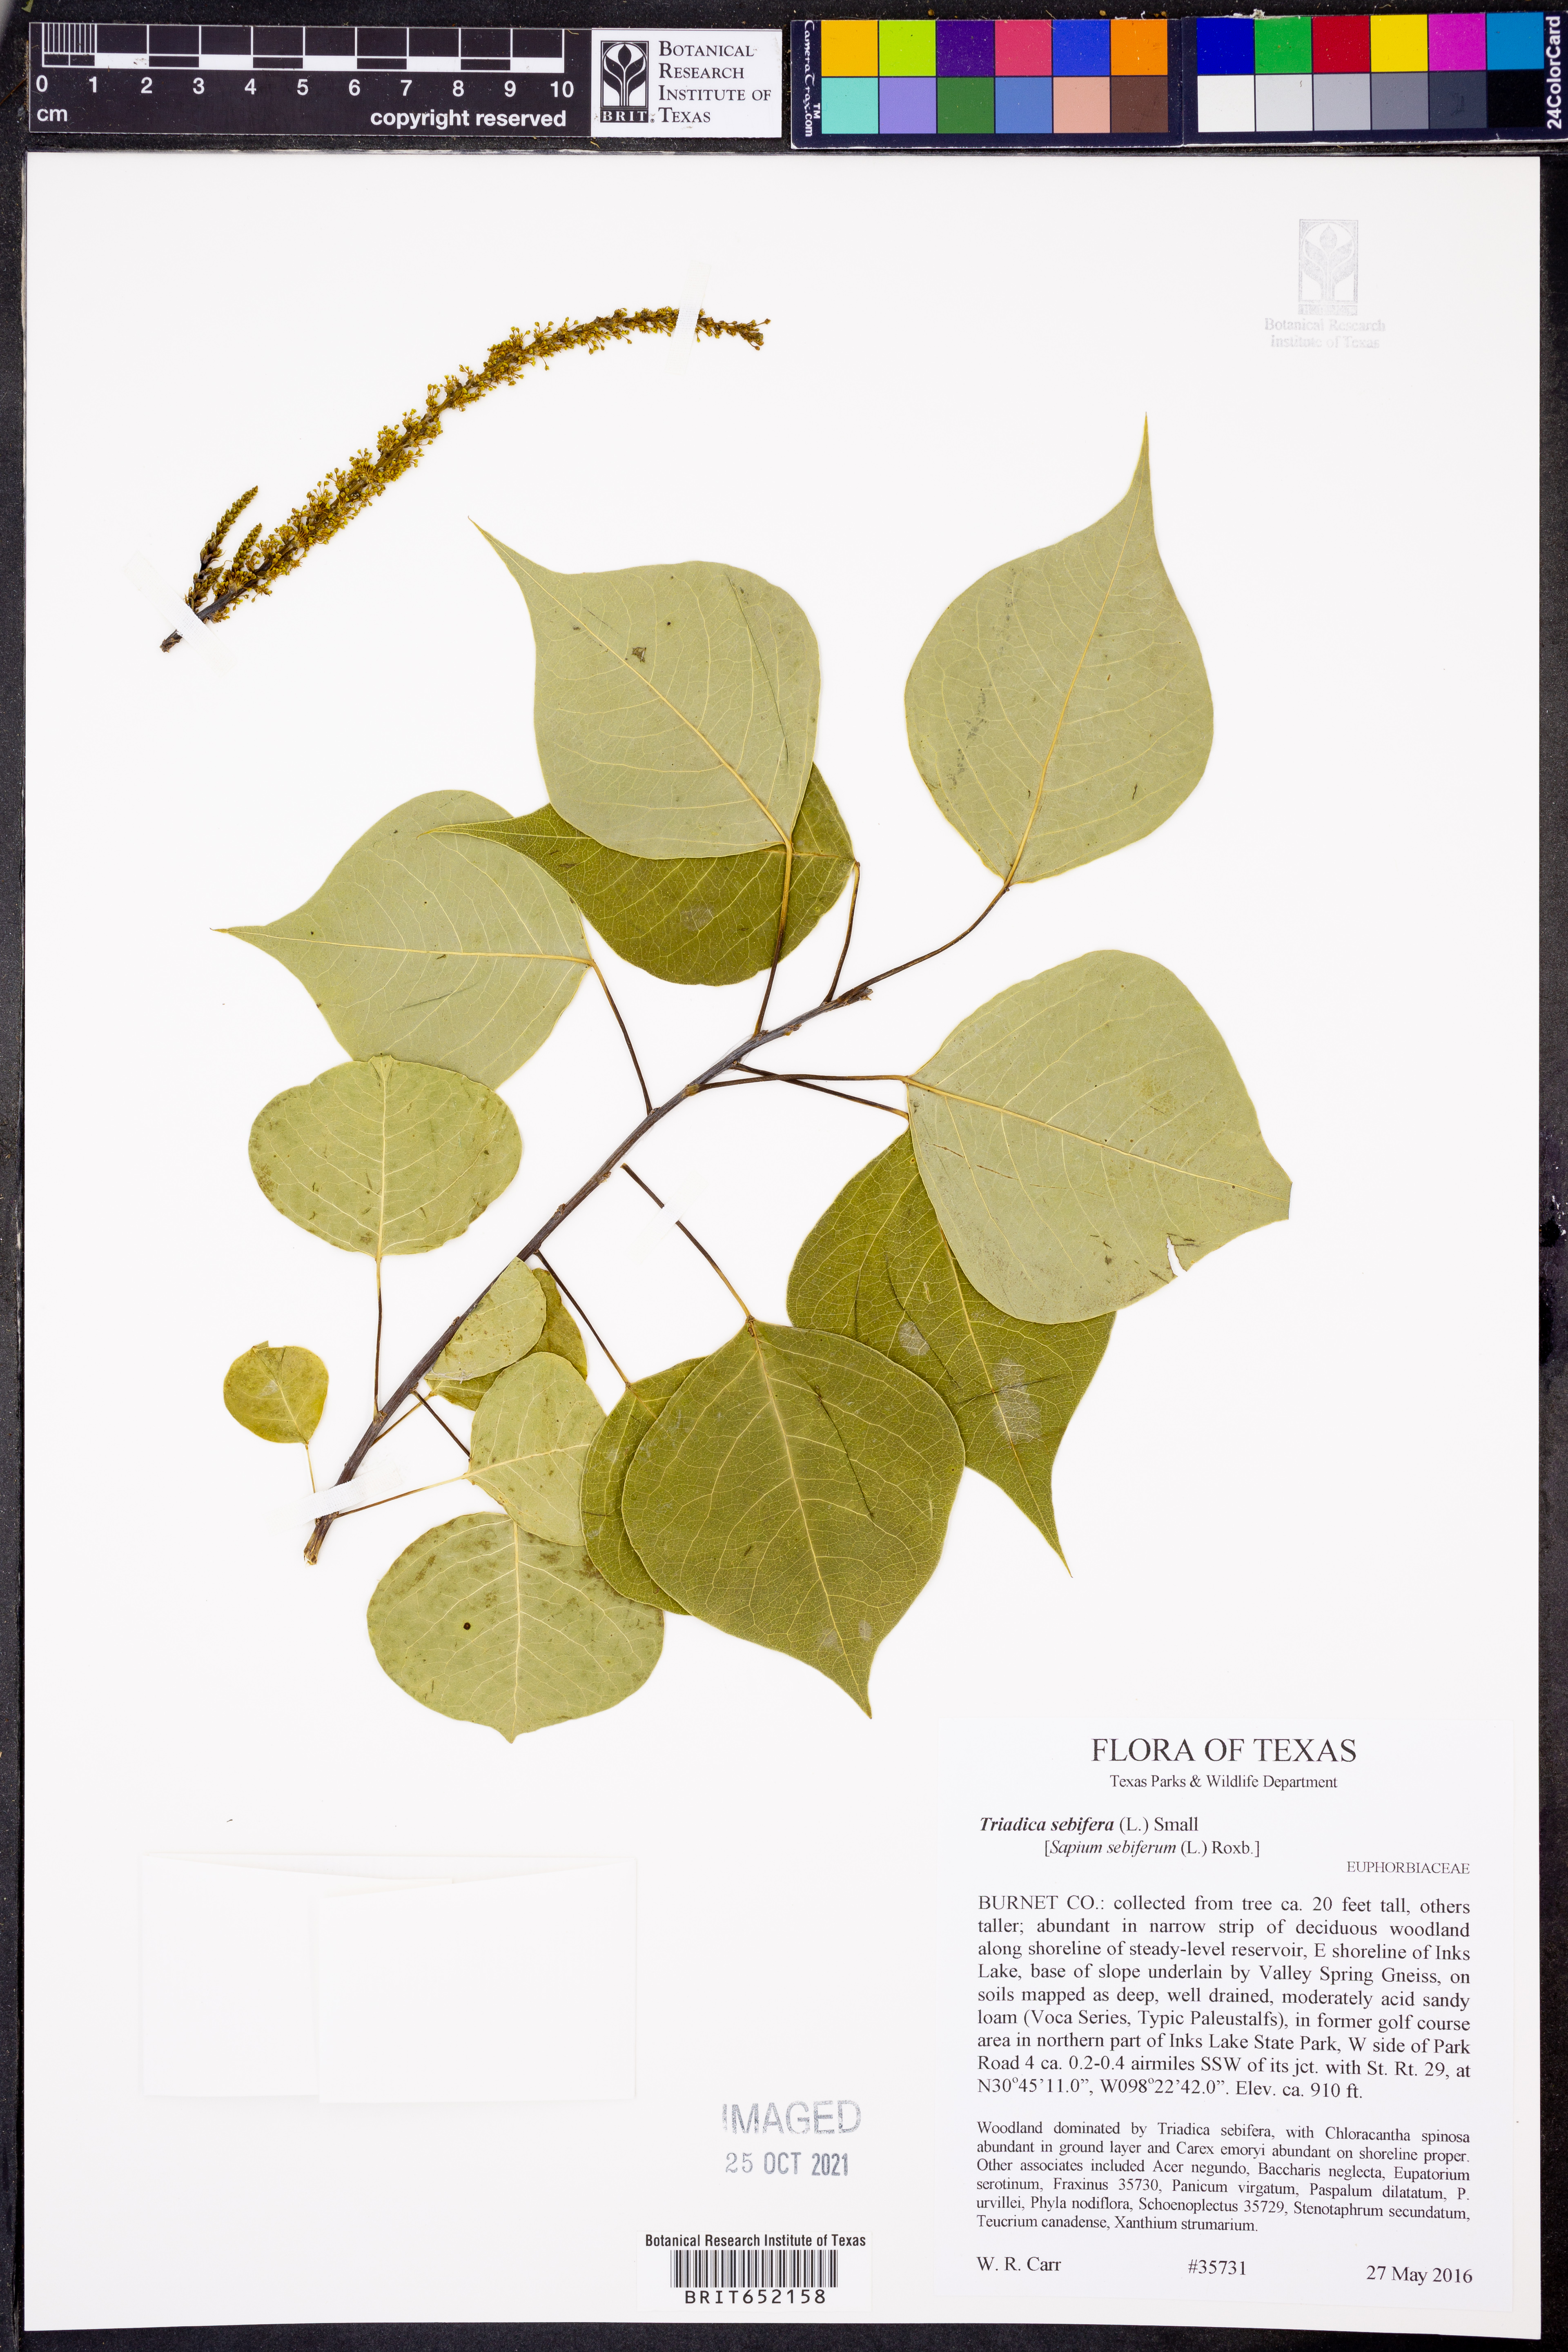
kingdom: Plantae
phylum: Tracheophyta
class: Magnoliopsida
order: Malpighiales
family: Euphorbiaceae
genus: Triadica
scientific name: Triadica sebifera
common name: Chinese tallow
